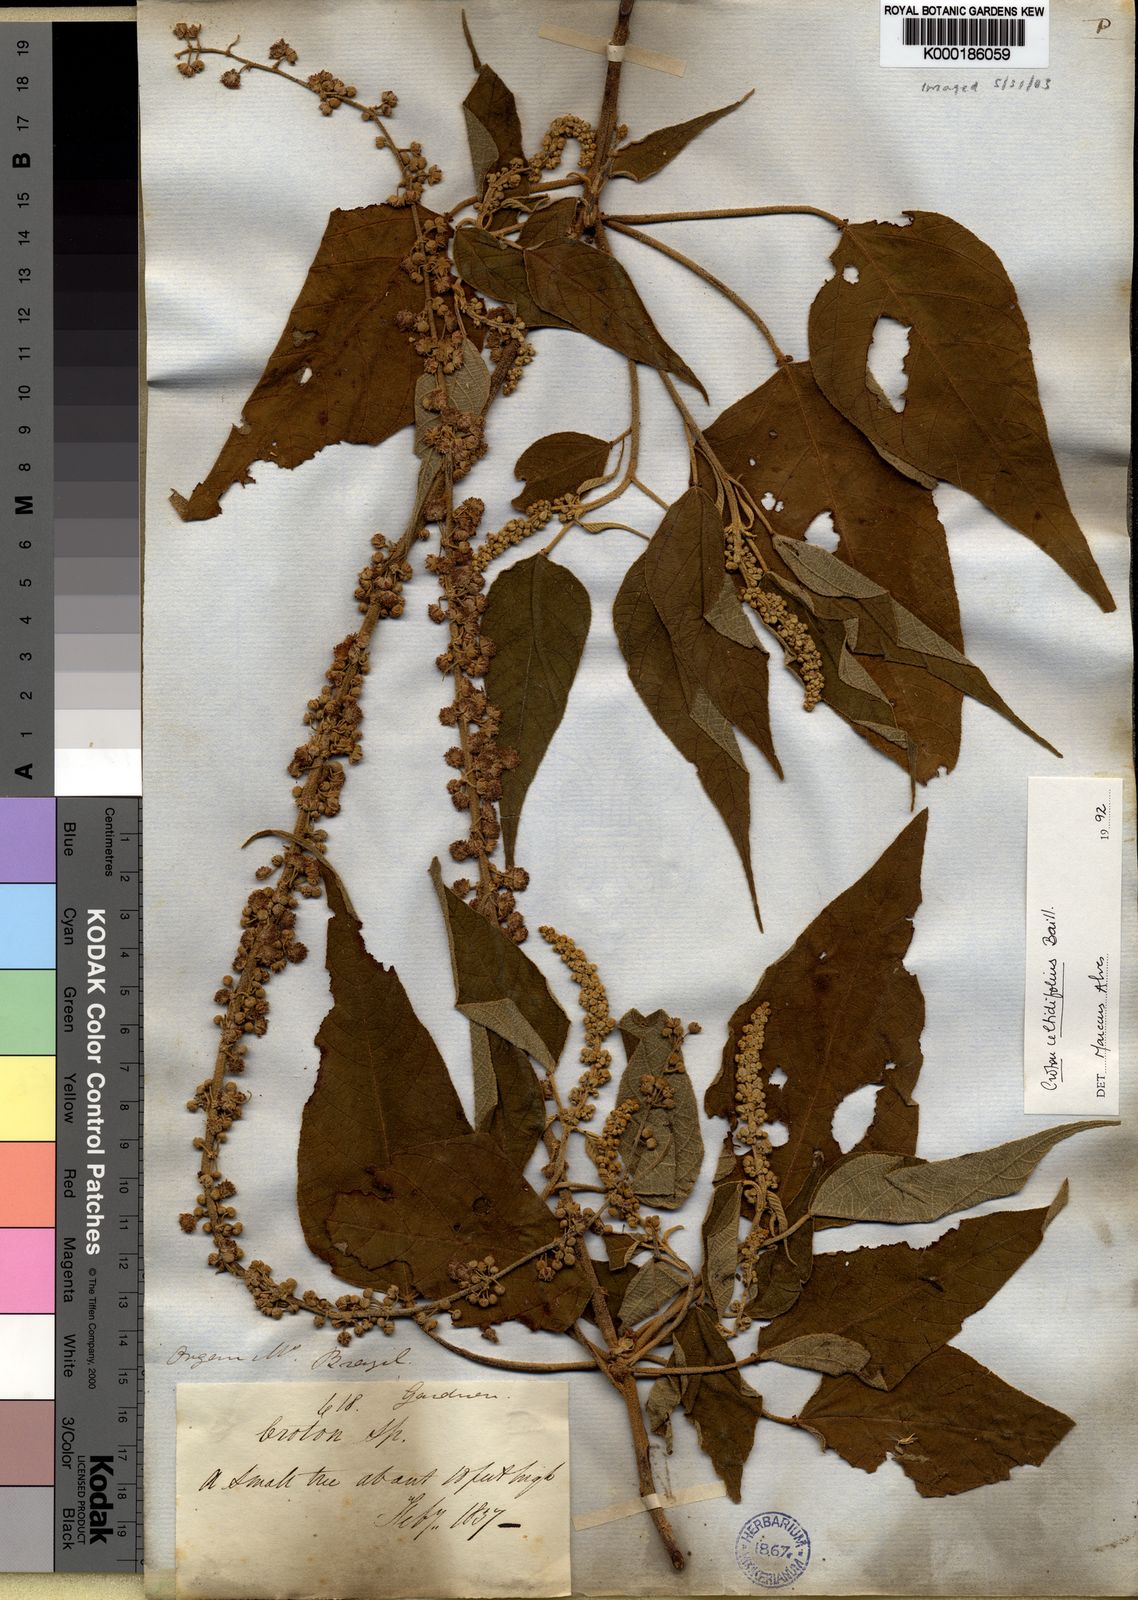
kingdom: Plantae
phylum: Tracheophyta
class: Magnoliopsida
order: Malpighiales
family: Euphorbiaceae
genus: Croton
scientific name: Croton celtidifolius
